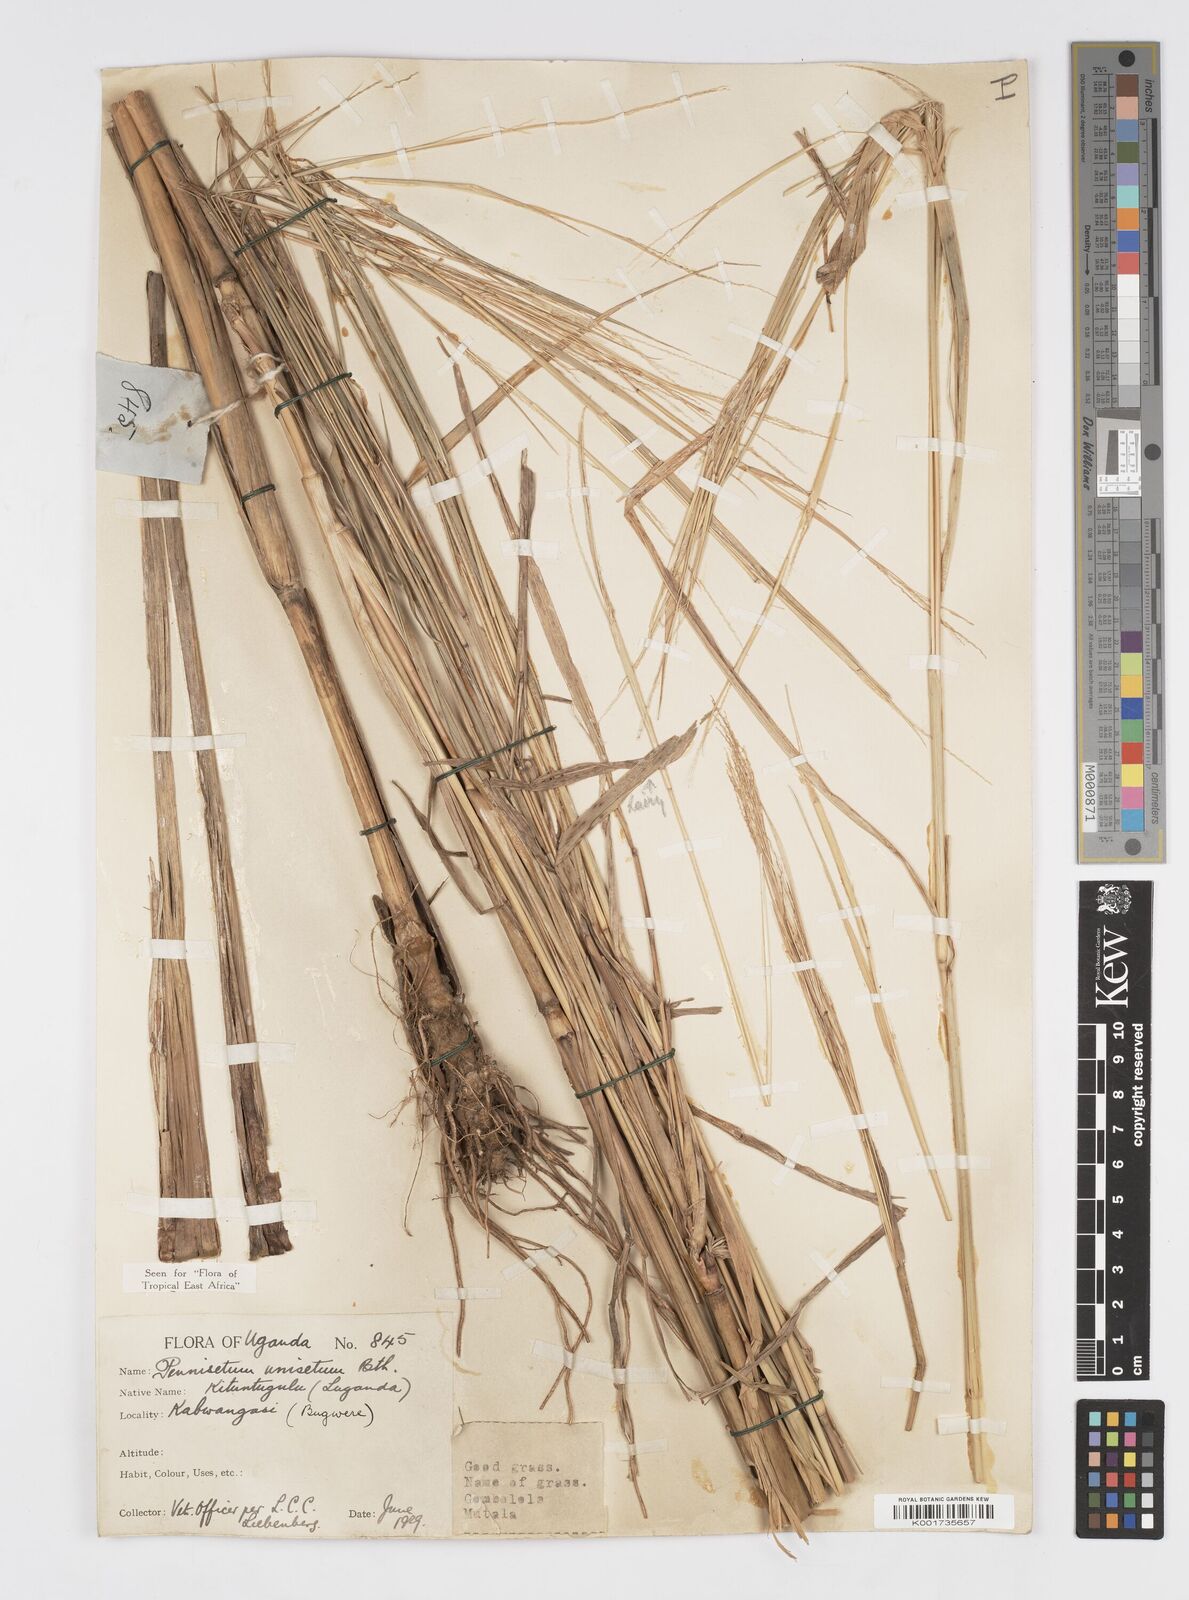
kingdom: Plantae
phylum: Tracheophyta
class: Liliopsida
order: Poales
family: Poaceae
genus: Cenchrus
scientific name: Cenchrus unisetus
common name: Natal grass
